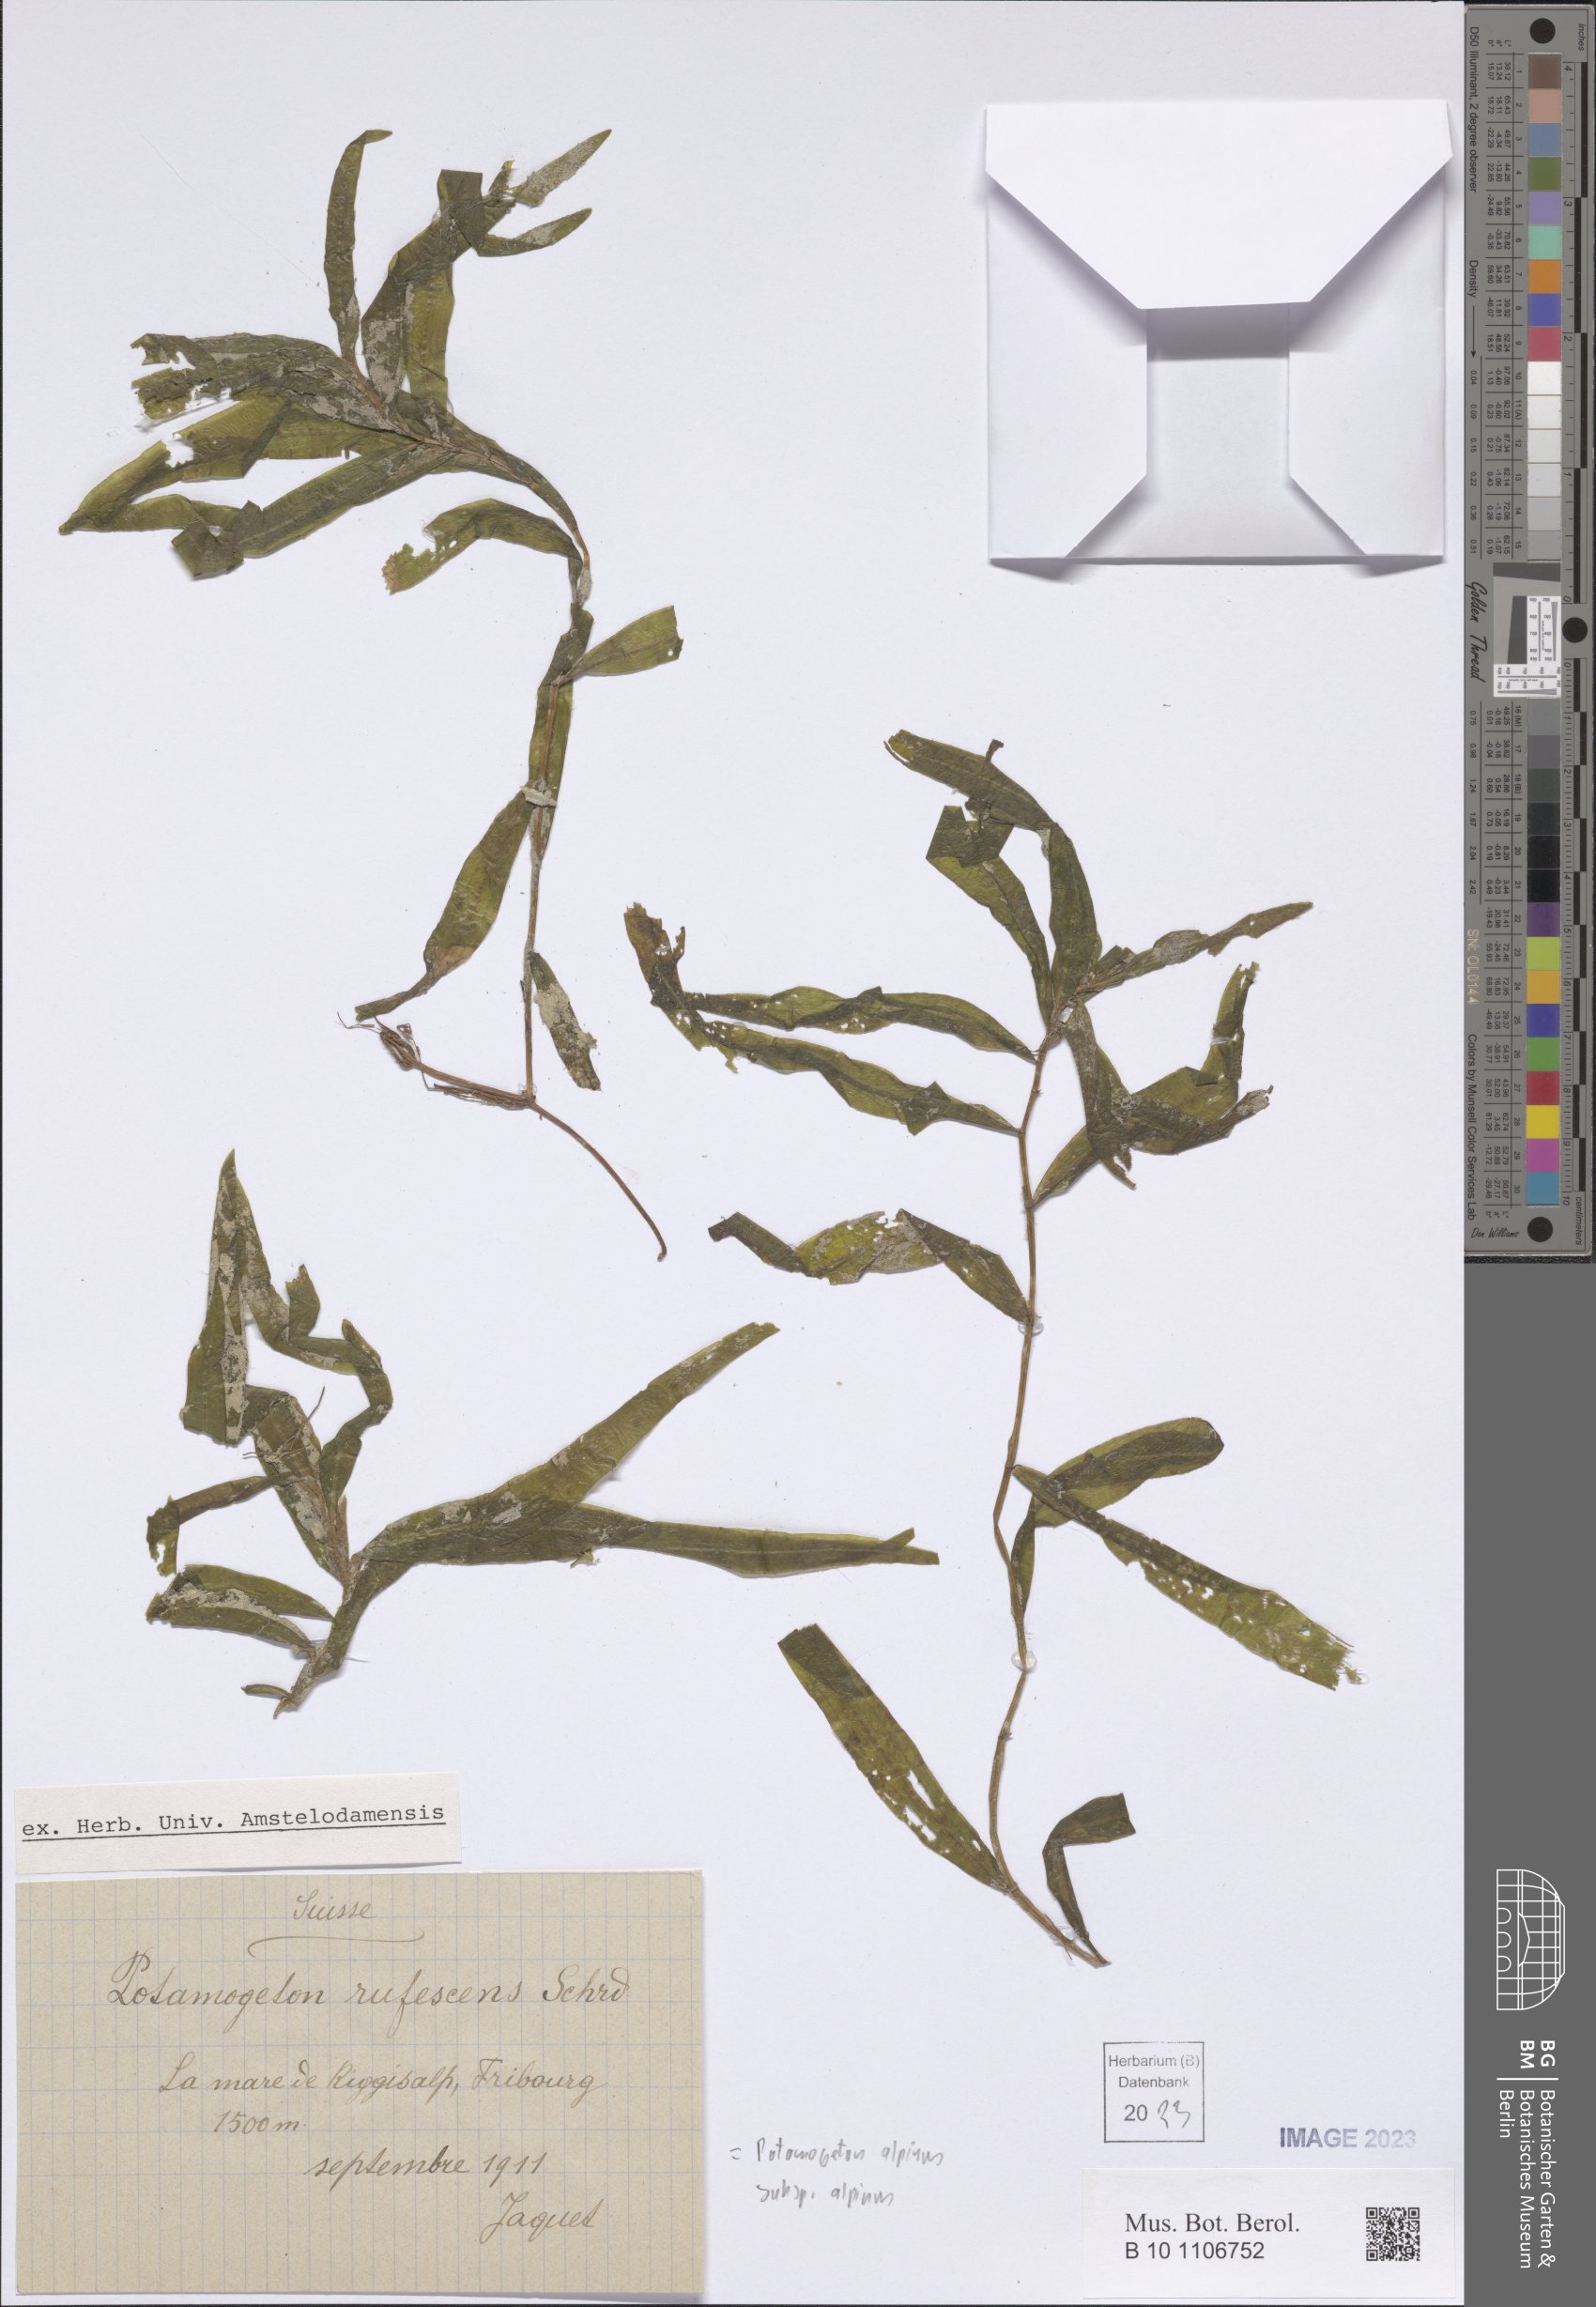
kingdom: Plantae
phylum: Tracheophyta
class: Liliopsida
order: Alismatales
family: Potamogetonaceae
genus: Potamogeton
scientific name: Potamogeton alpinus
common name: Red pondweed
